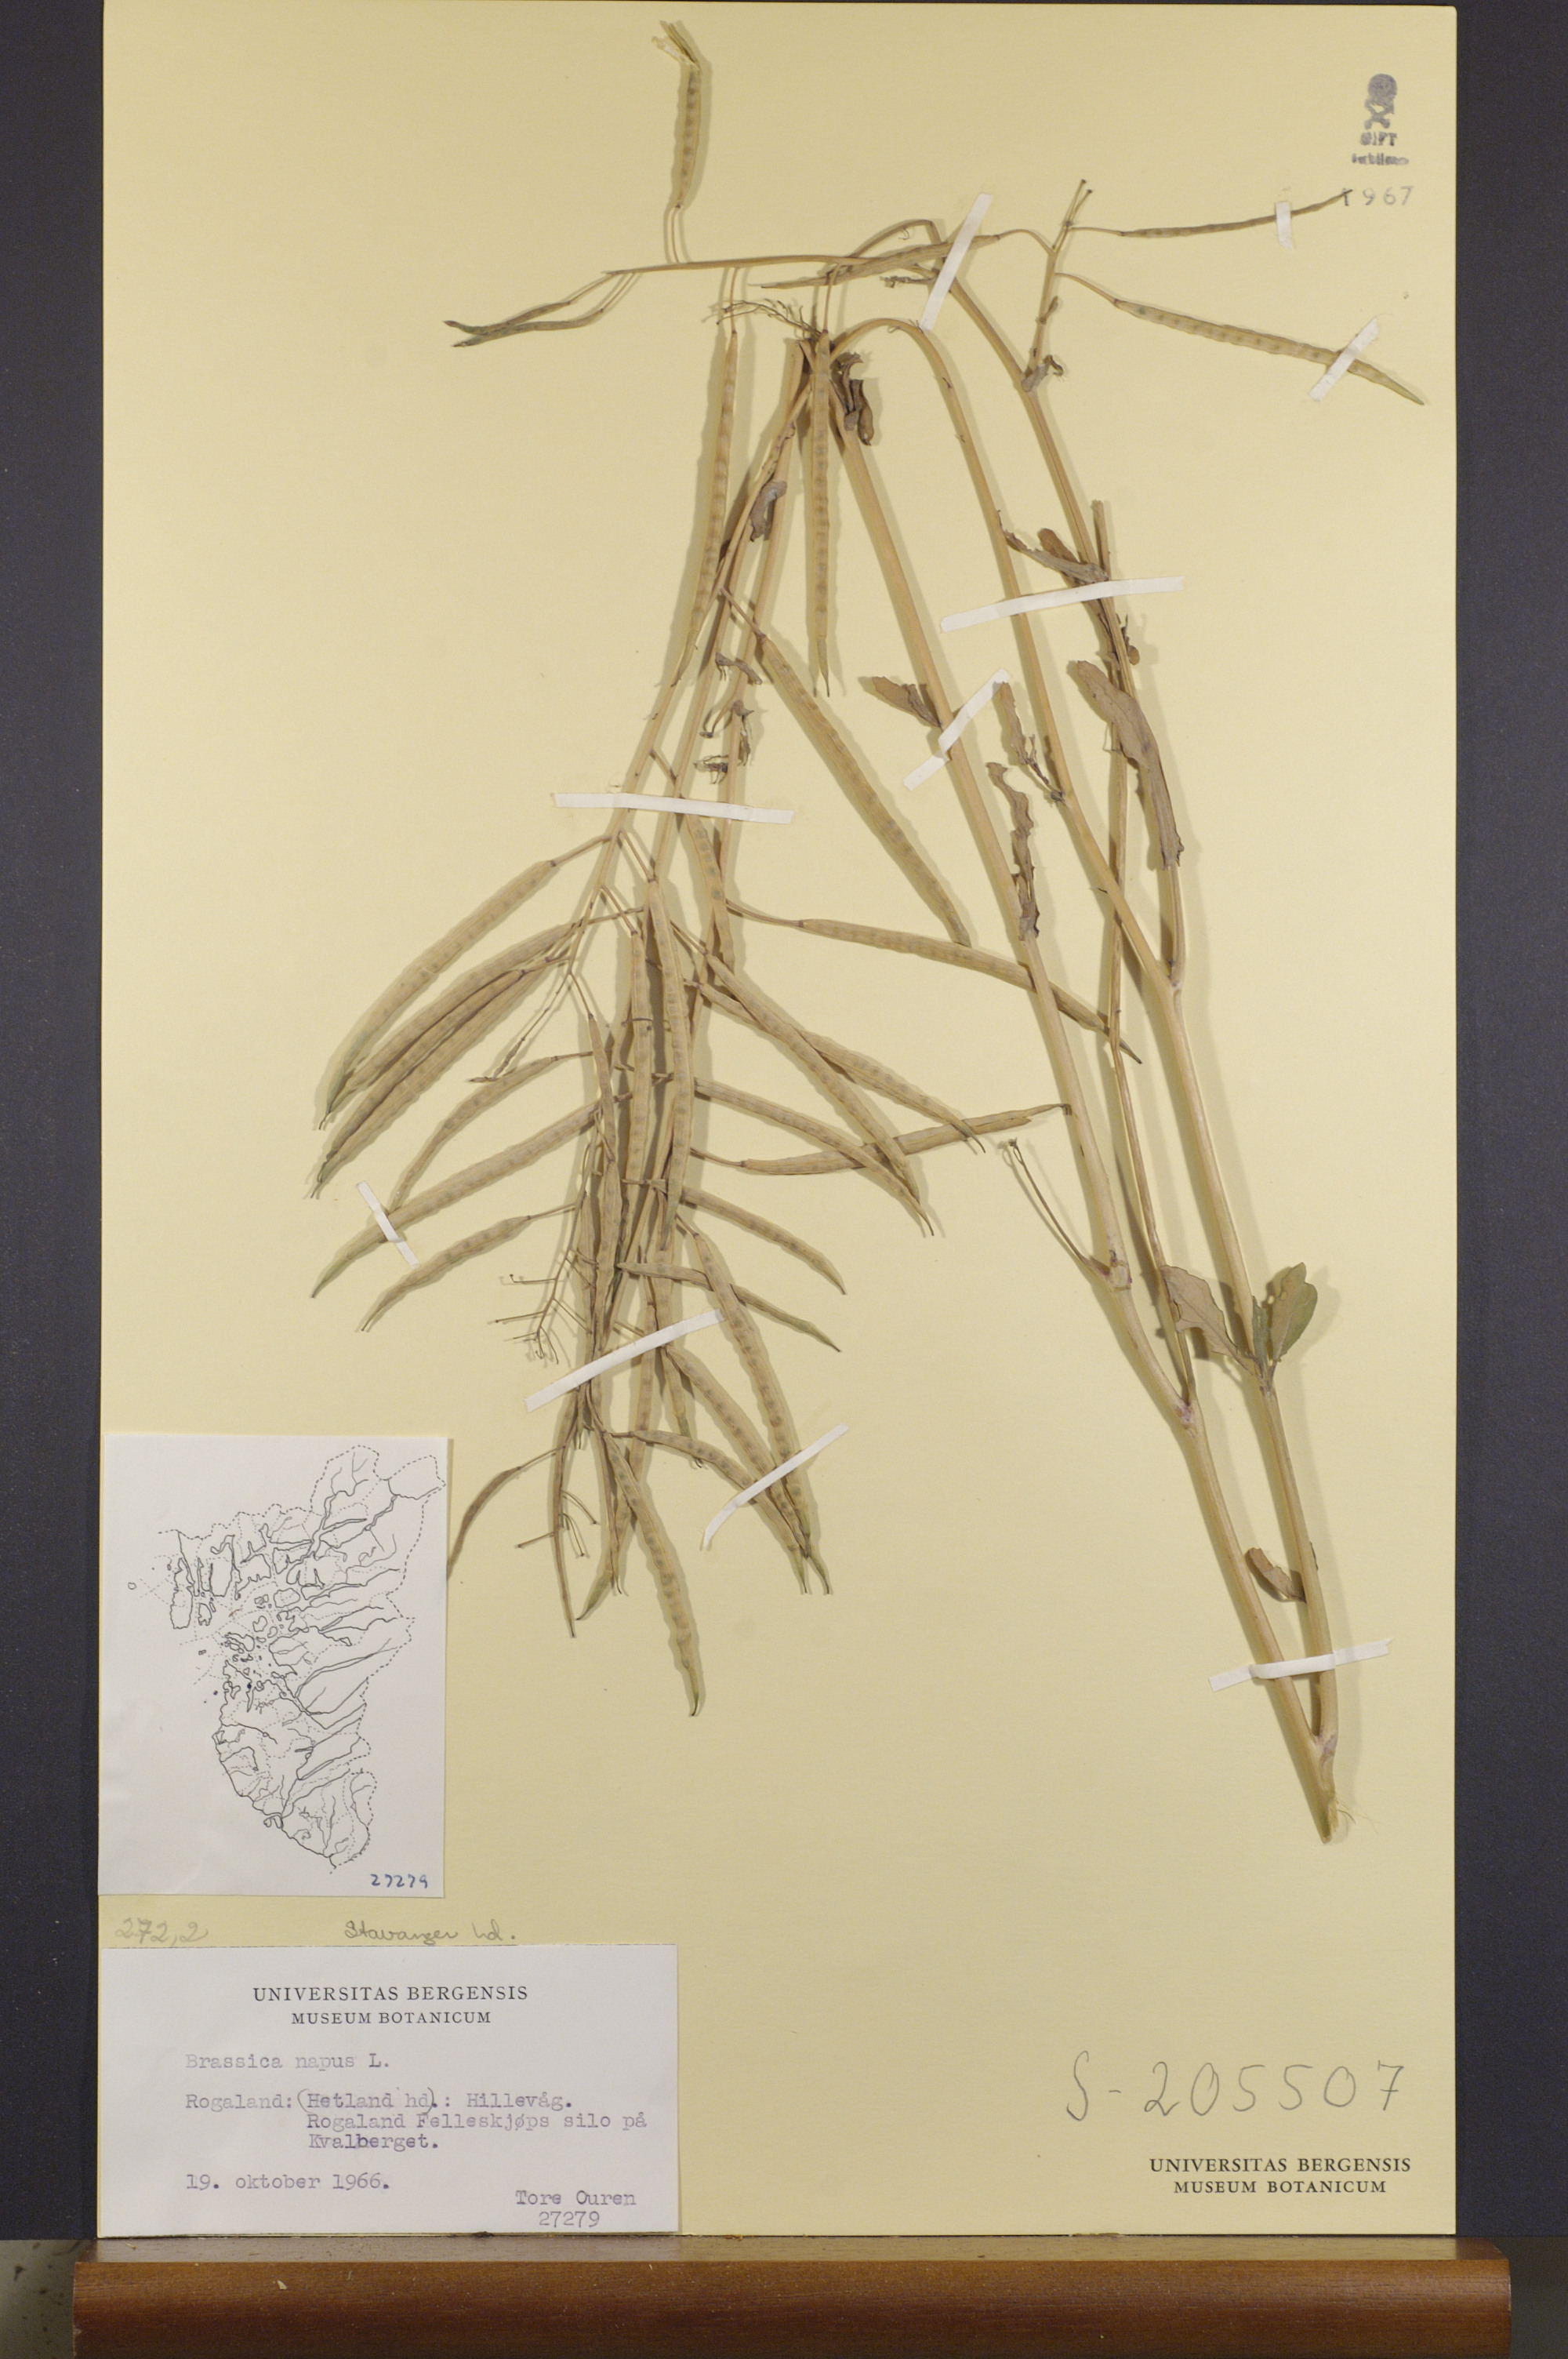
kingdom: Plantae
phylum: Tracheophyta
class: Magnoliopsida
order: Brassicales
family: Brassicaceae
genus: Brassica
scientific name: Brassica napus
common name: Rape
